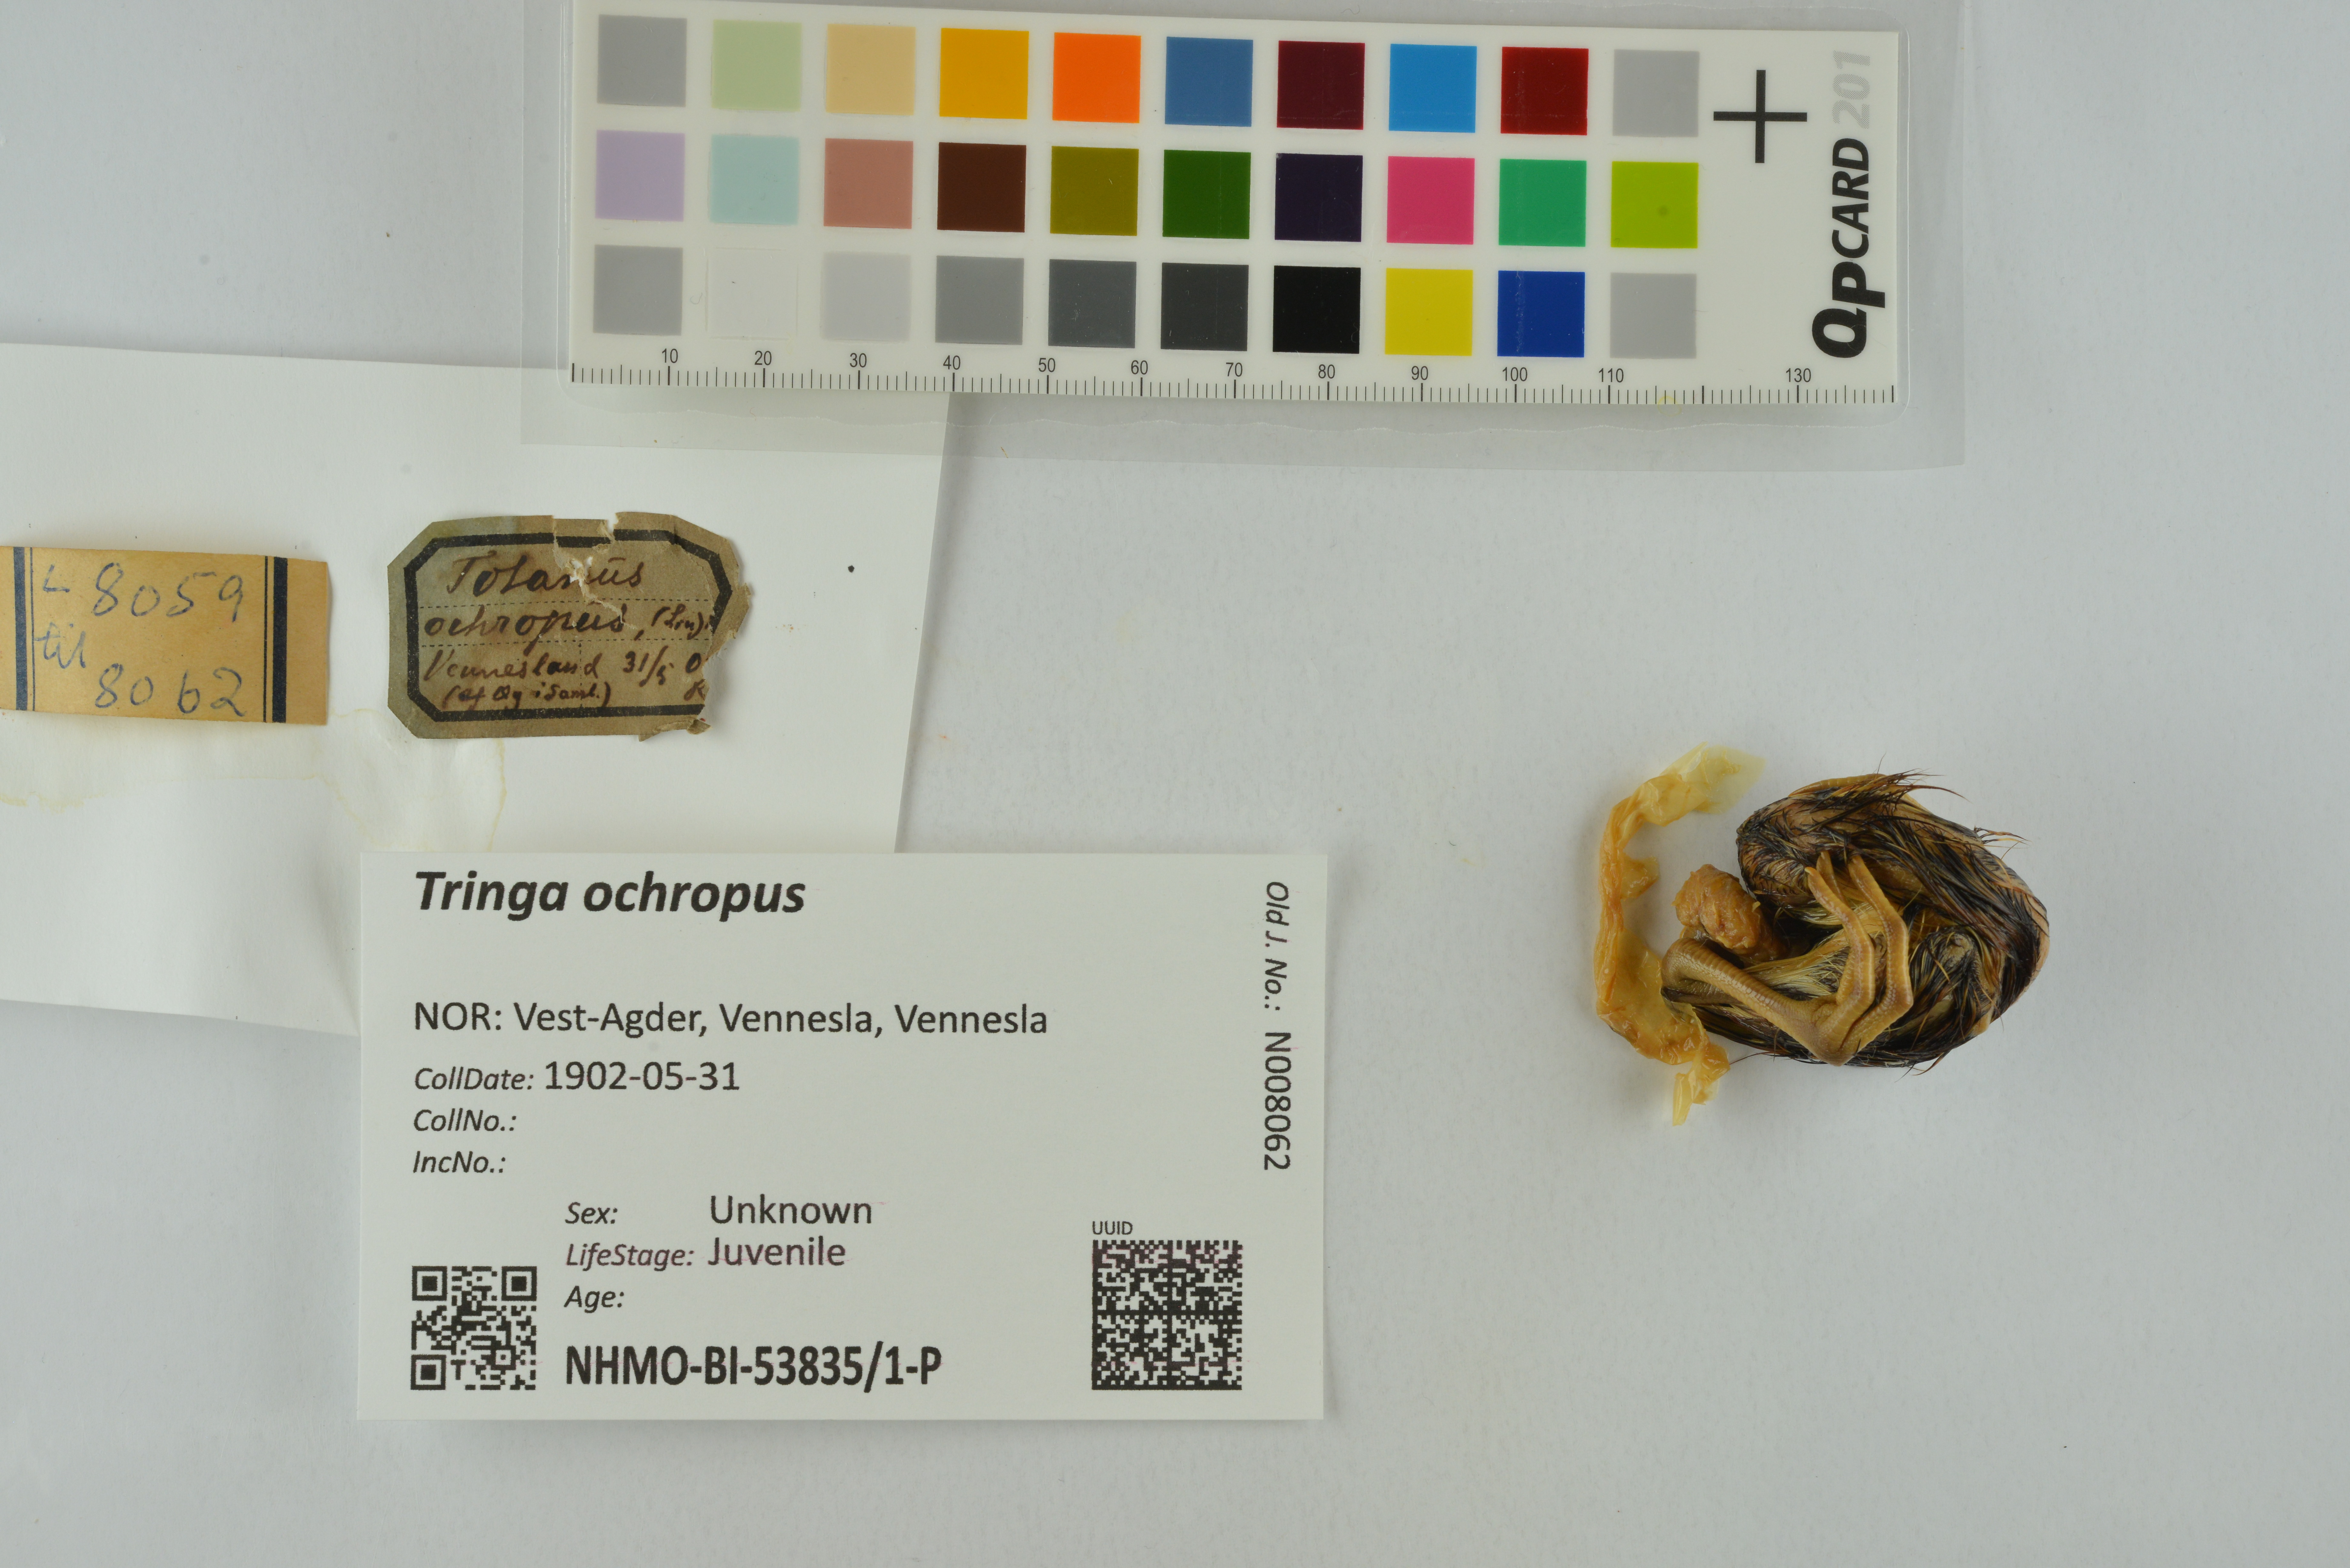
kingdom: Animalia
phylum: Chordata
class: Aves
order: Charadriiformes
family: Scolopacidae
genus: Tringa
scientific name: Tringa ochropus
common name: Green sandpiper
